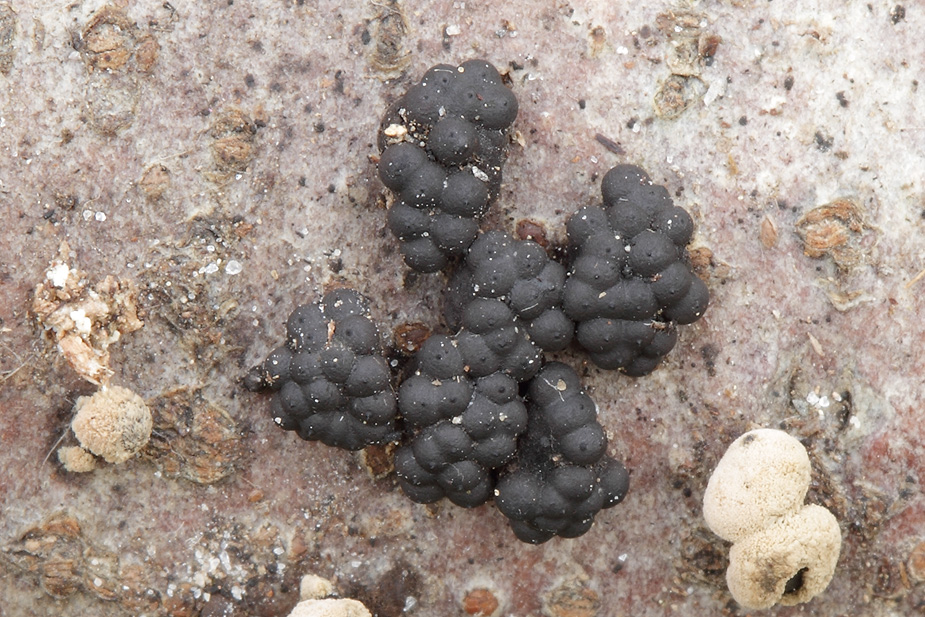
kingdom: Fungi
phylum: Ascomycota
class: Sordariomycetes
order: Xylariales
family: Hypoxylaceae
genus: Jackrogersella
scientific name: Jackrogersella
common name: kulbær
